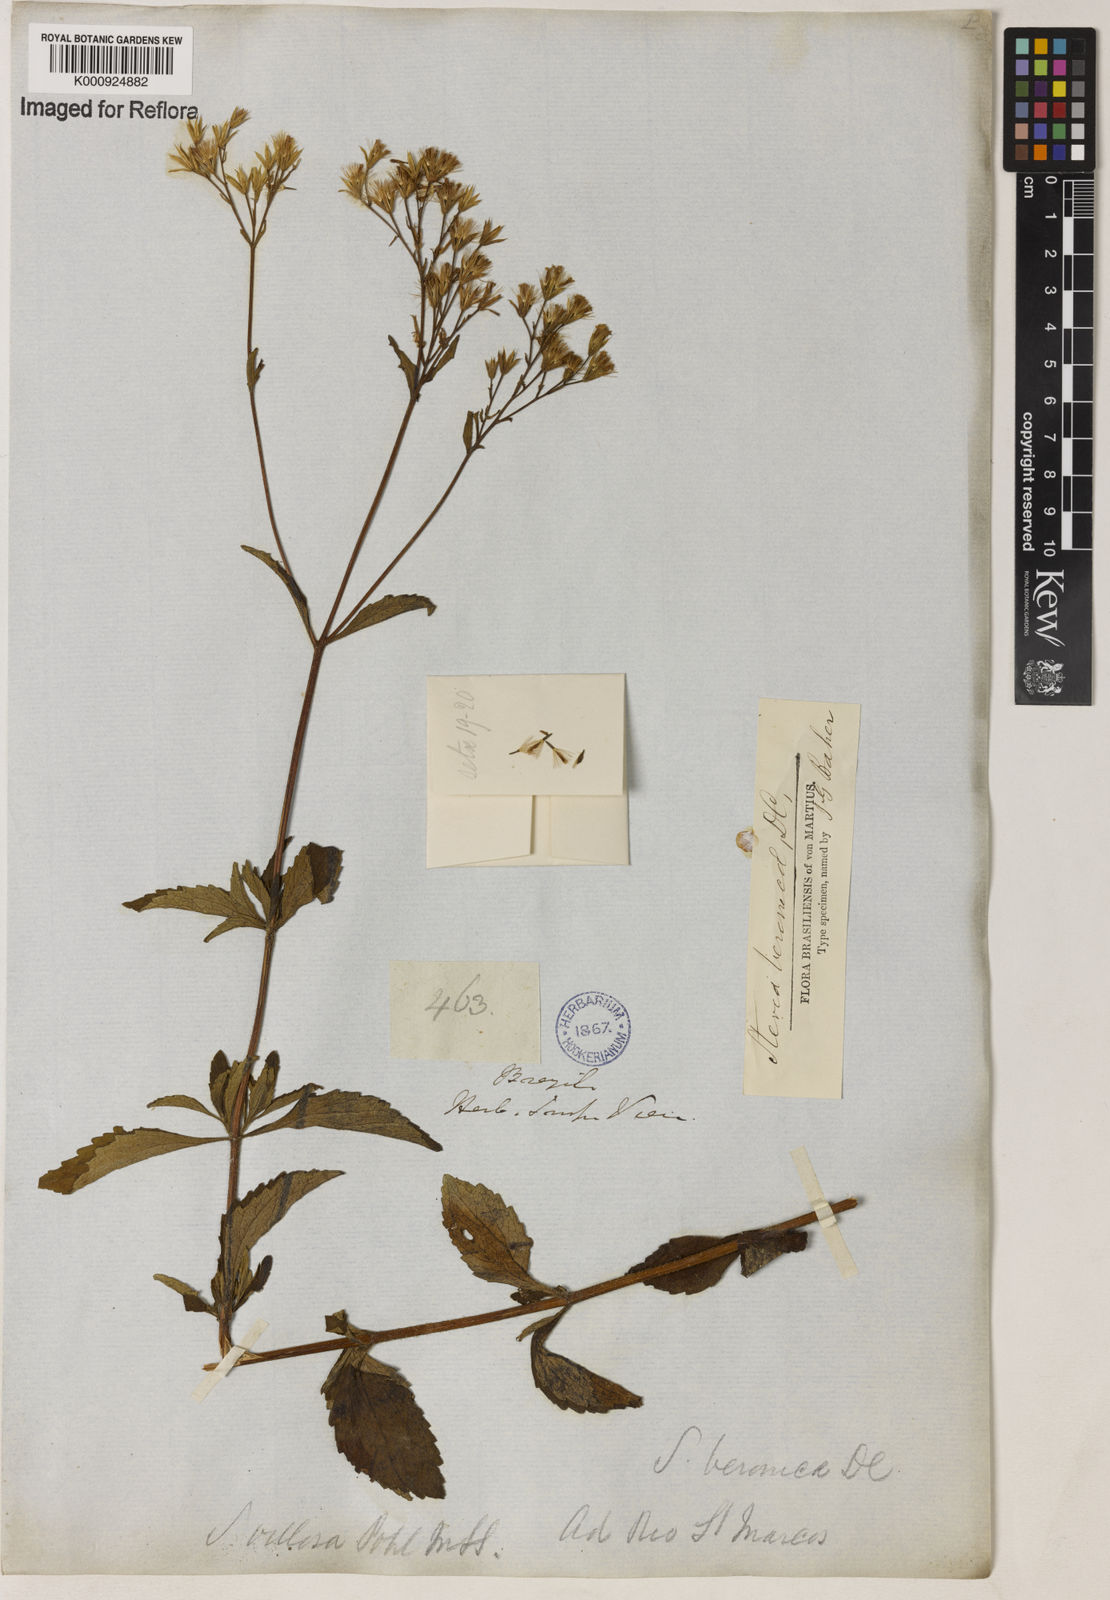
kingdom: Plantae
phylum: Tracheophyta
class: Magnoliopsida
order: Asterales
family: Asteraceae
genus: Stevia
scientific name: Stevia veronicae
